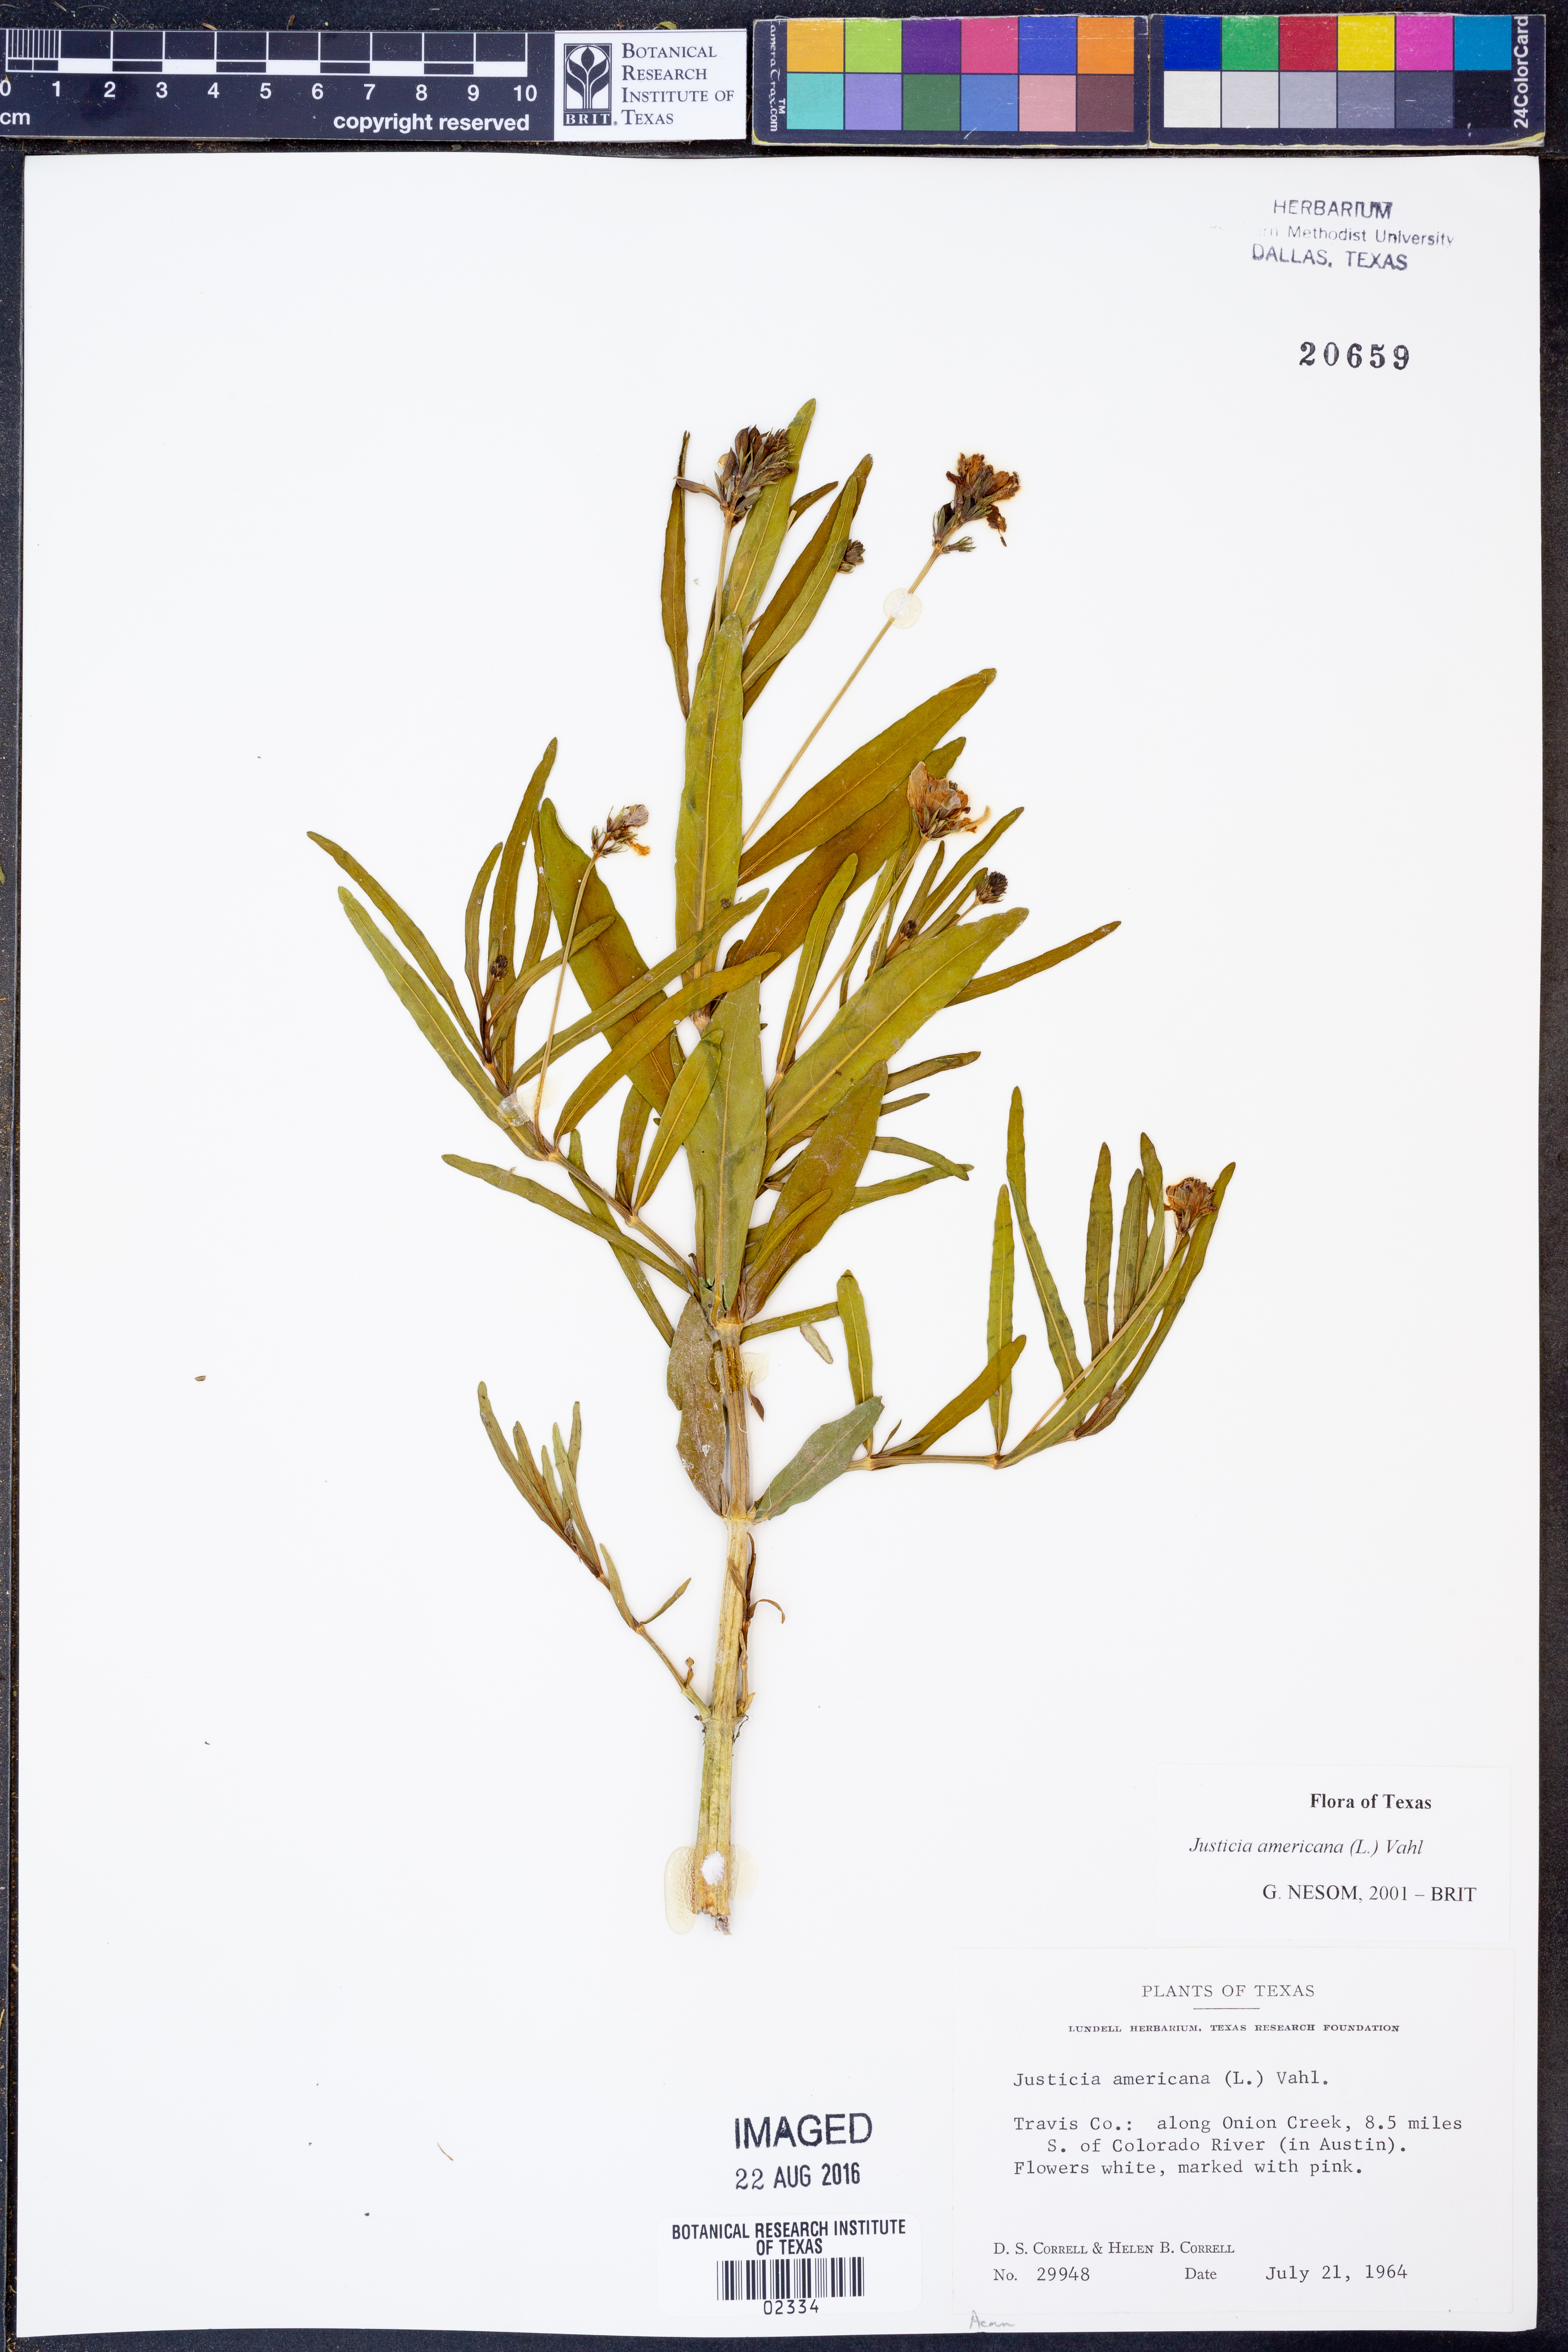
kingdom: Plantae
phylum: Tracheophyta
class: Magnoliopsida
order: Lamiales
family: Acanthaceae
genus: Dianthera
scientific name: Dianthera americana
